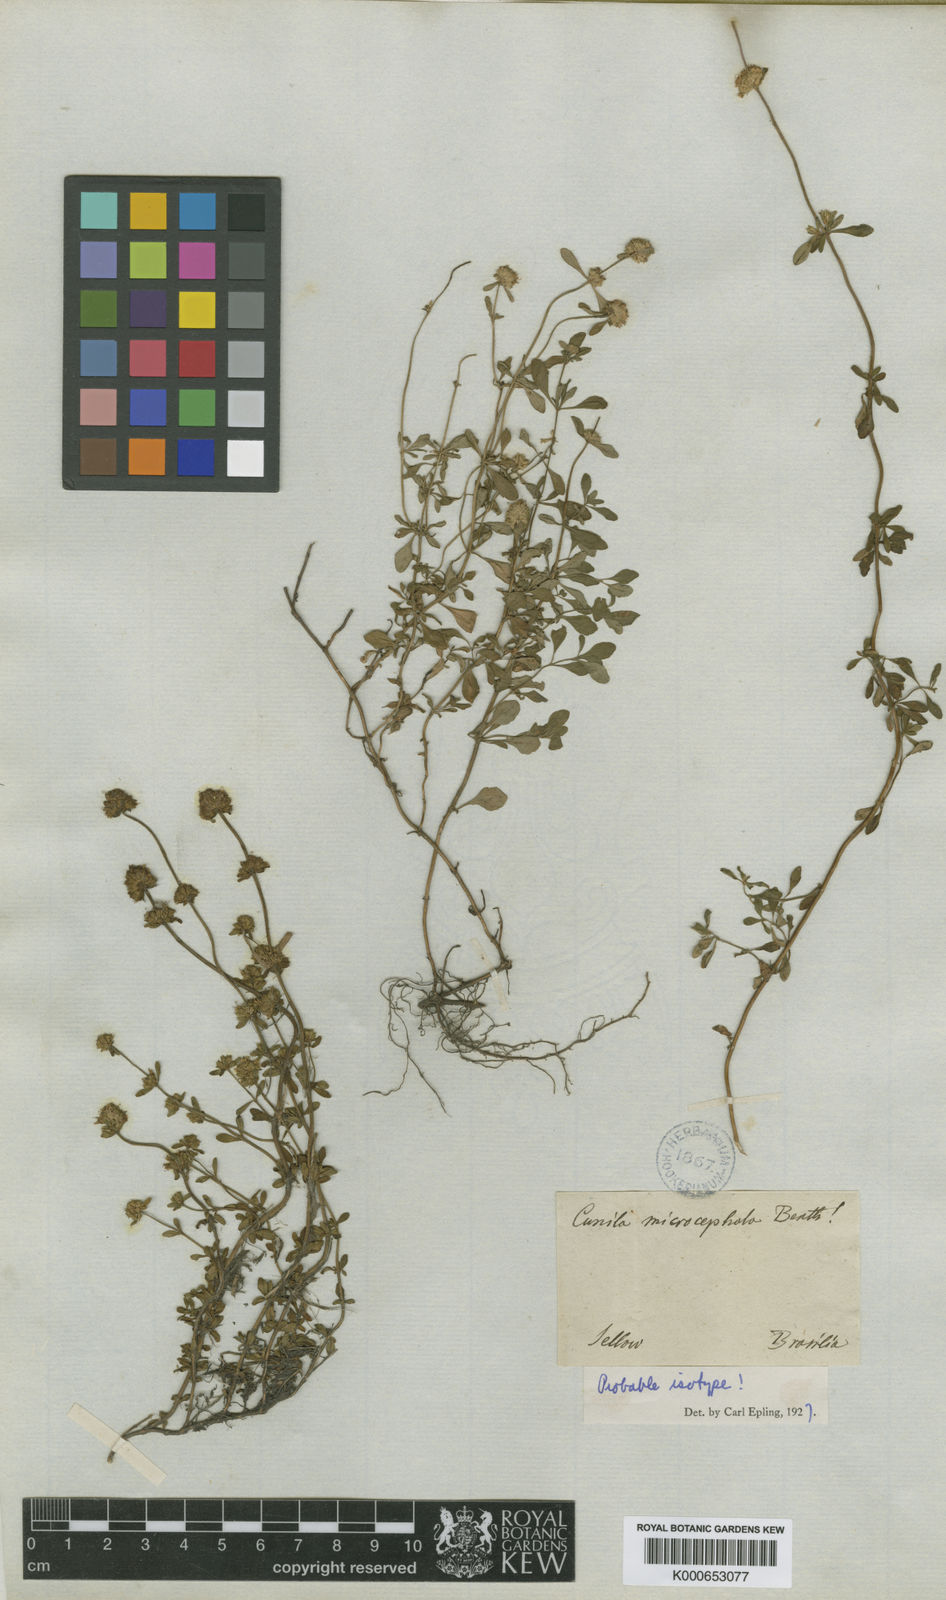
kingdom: Plantae
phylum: Tracheophyta
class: Magnoliopsida
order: Lamiales
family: Lamiaceae
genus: Cunila
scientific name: Cunila microcephala
